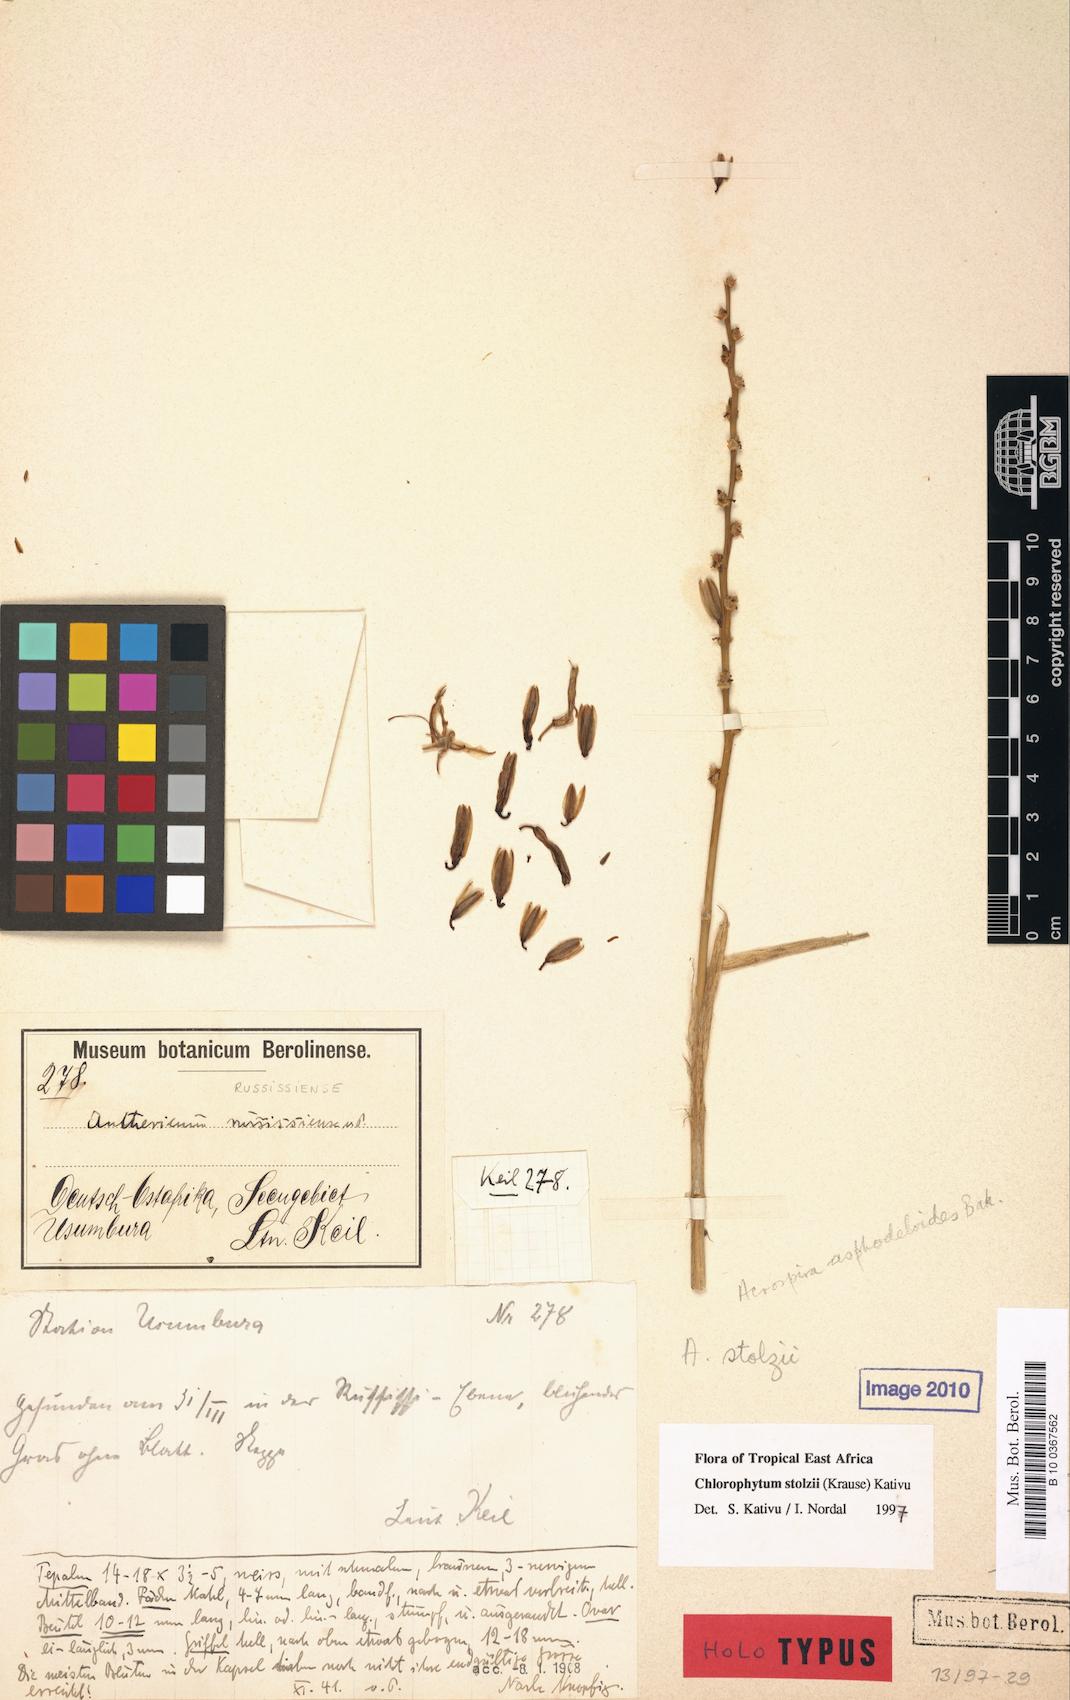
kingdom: Plantae
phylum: Tracheophyta
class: Liliopsida
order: Asparagales
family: Asparagaceae
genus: Chlorophytum
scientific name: Chlorophytum stolzii
